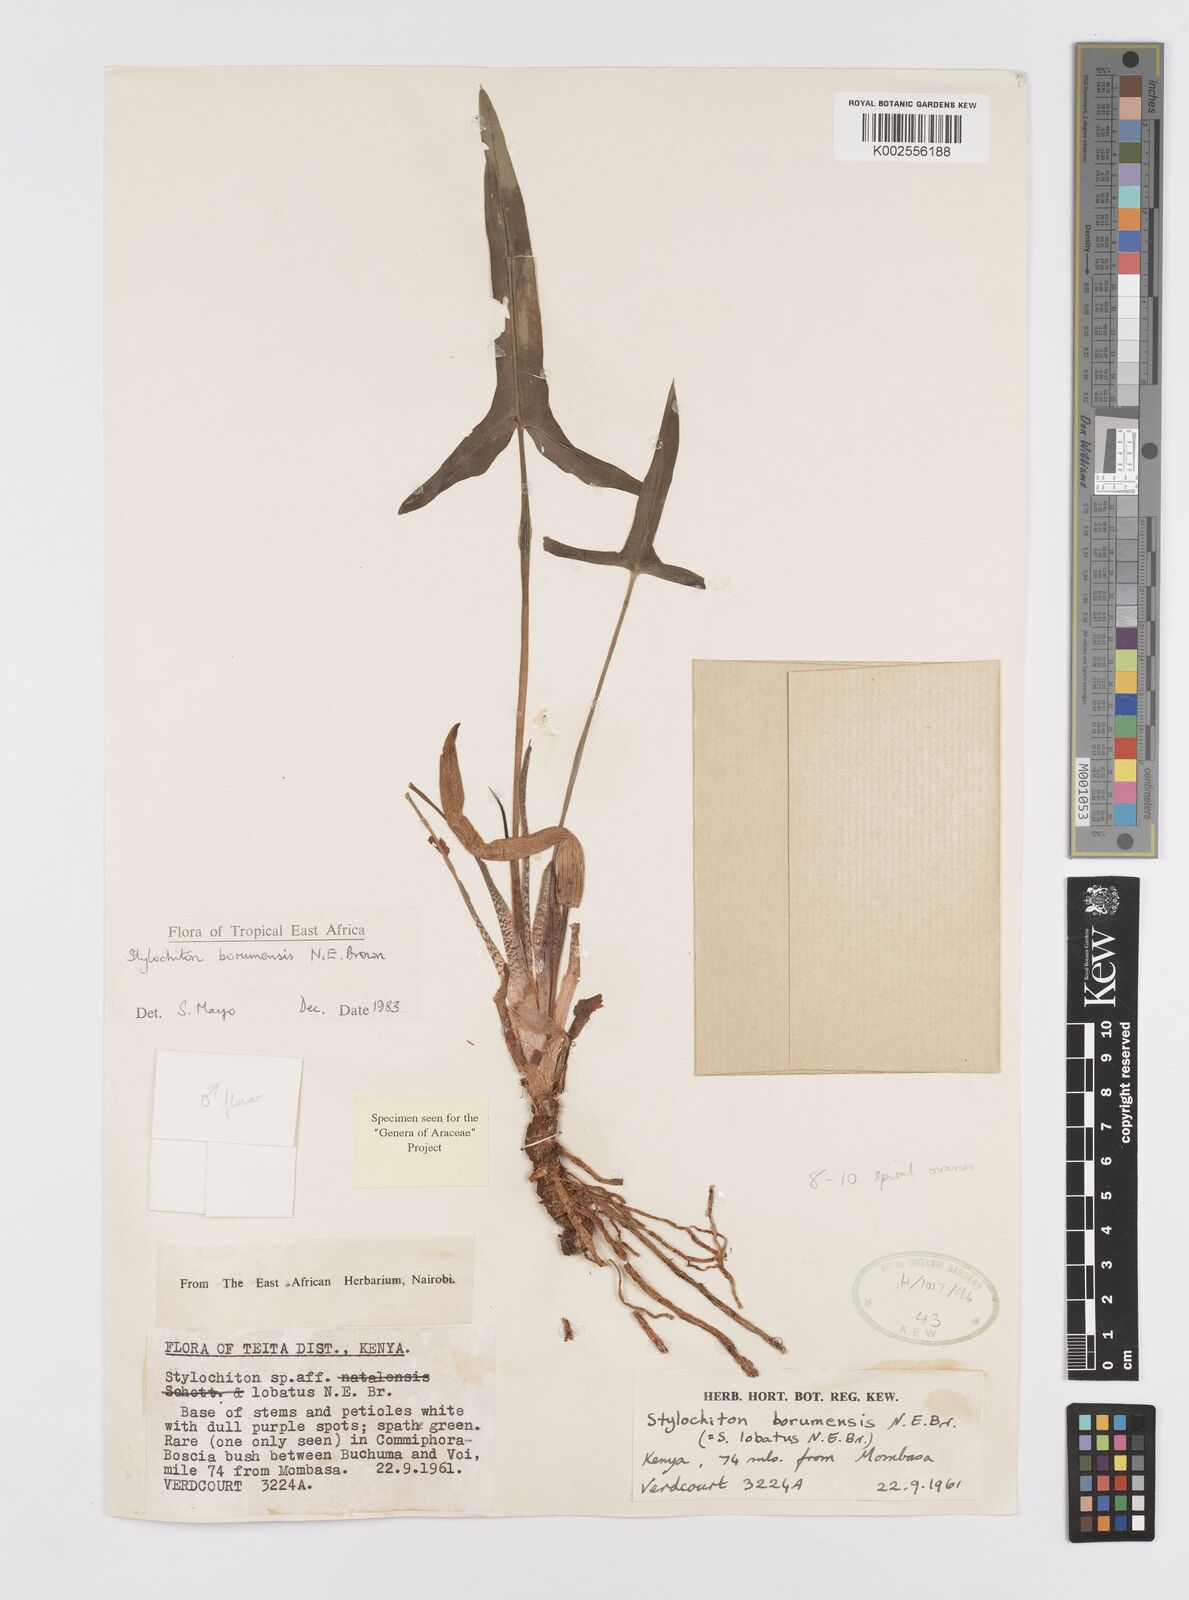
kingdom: Plantae
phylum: Tracheophyta
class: Liliopsida
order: Alismatales
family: Araceae
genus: Stylochaeton
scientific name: Stylochaeton borumense
